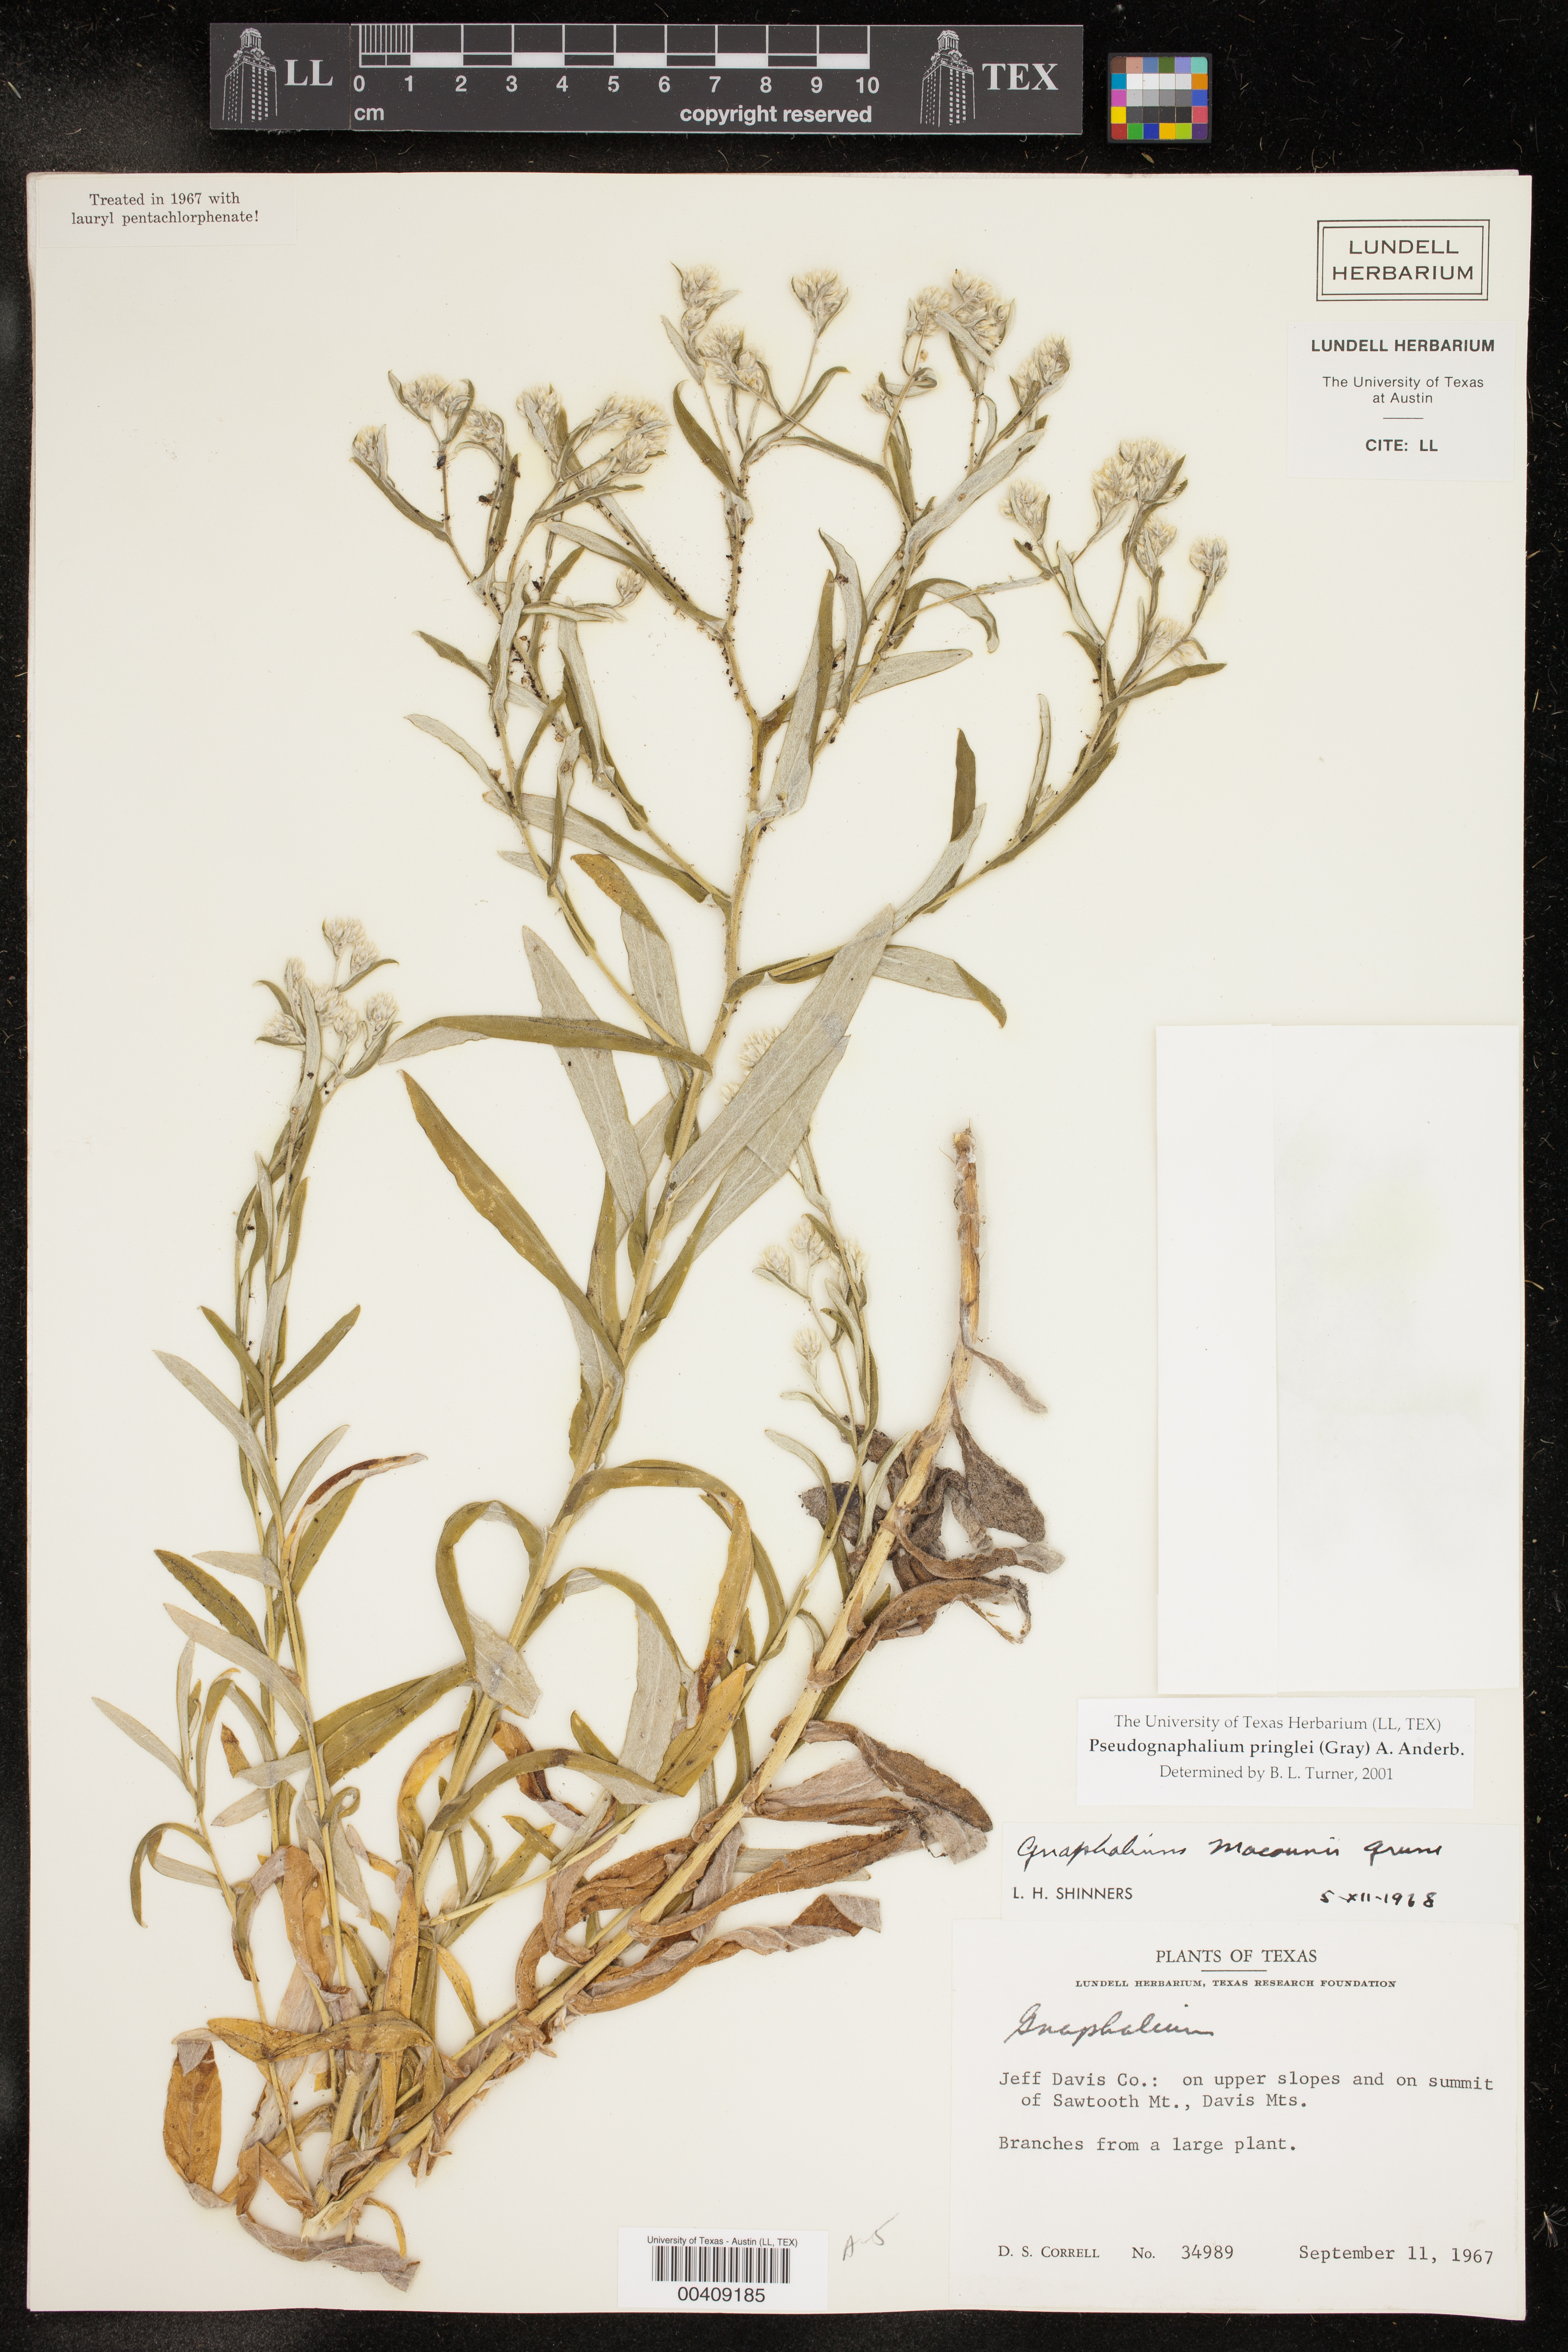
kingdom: Plantae
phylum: Tracheophyta
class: Magnoliopsida
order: Asterales
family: Asteraceae
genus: Pseudognaphalium
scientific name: Pseudognaphalium pringlei
